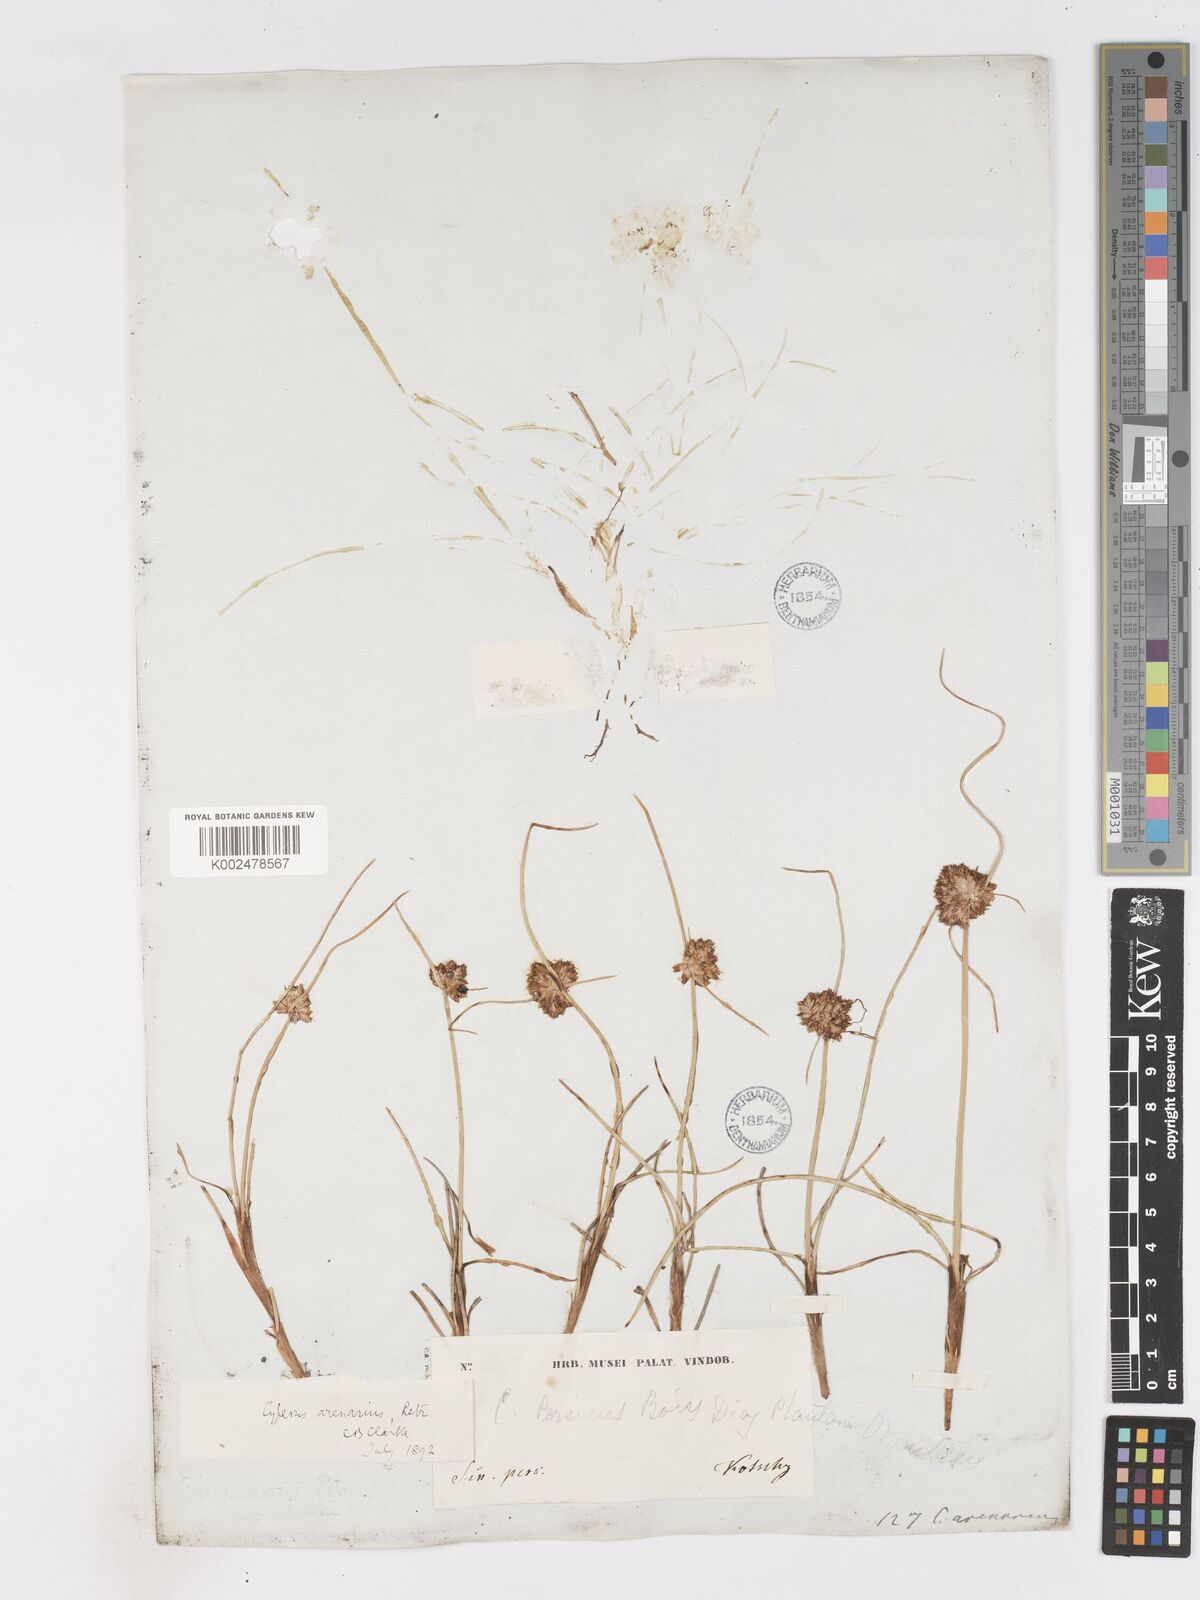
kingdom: Plantae
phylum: Tracheophyta
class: Liliopsida
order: Poales
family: Cyperaceae
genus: Cyperus
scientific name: Cyperus arenarius
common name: Dwarf sedge
